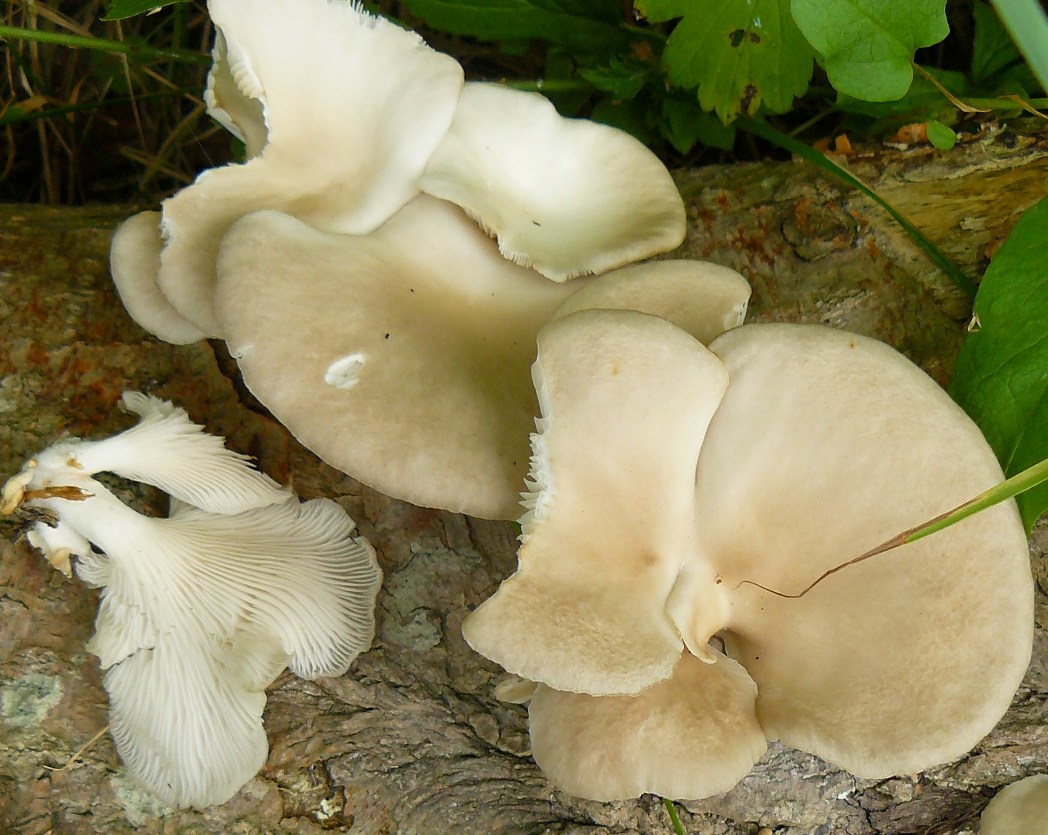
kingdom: Fungi
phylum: Basidiomycota
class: Agaricomycetes
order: Agaricales
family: Pleurotaceae
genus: Pleurotus
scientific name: Pleurotus pulmonarius
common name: sommer-østershat
